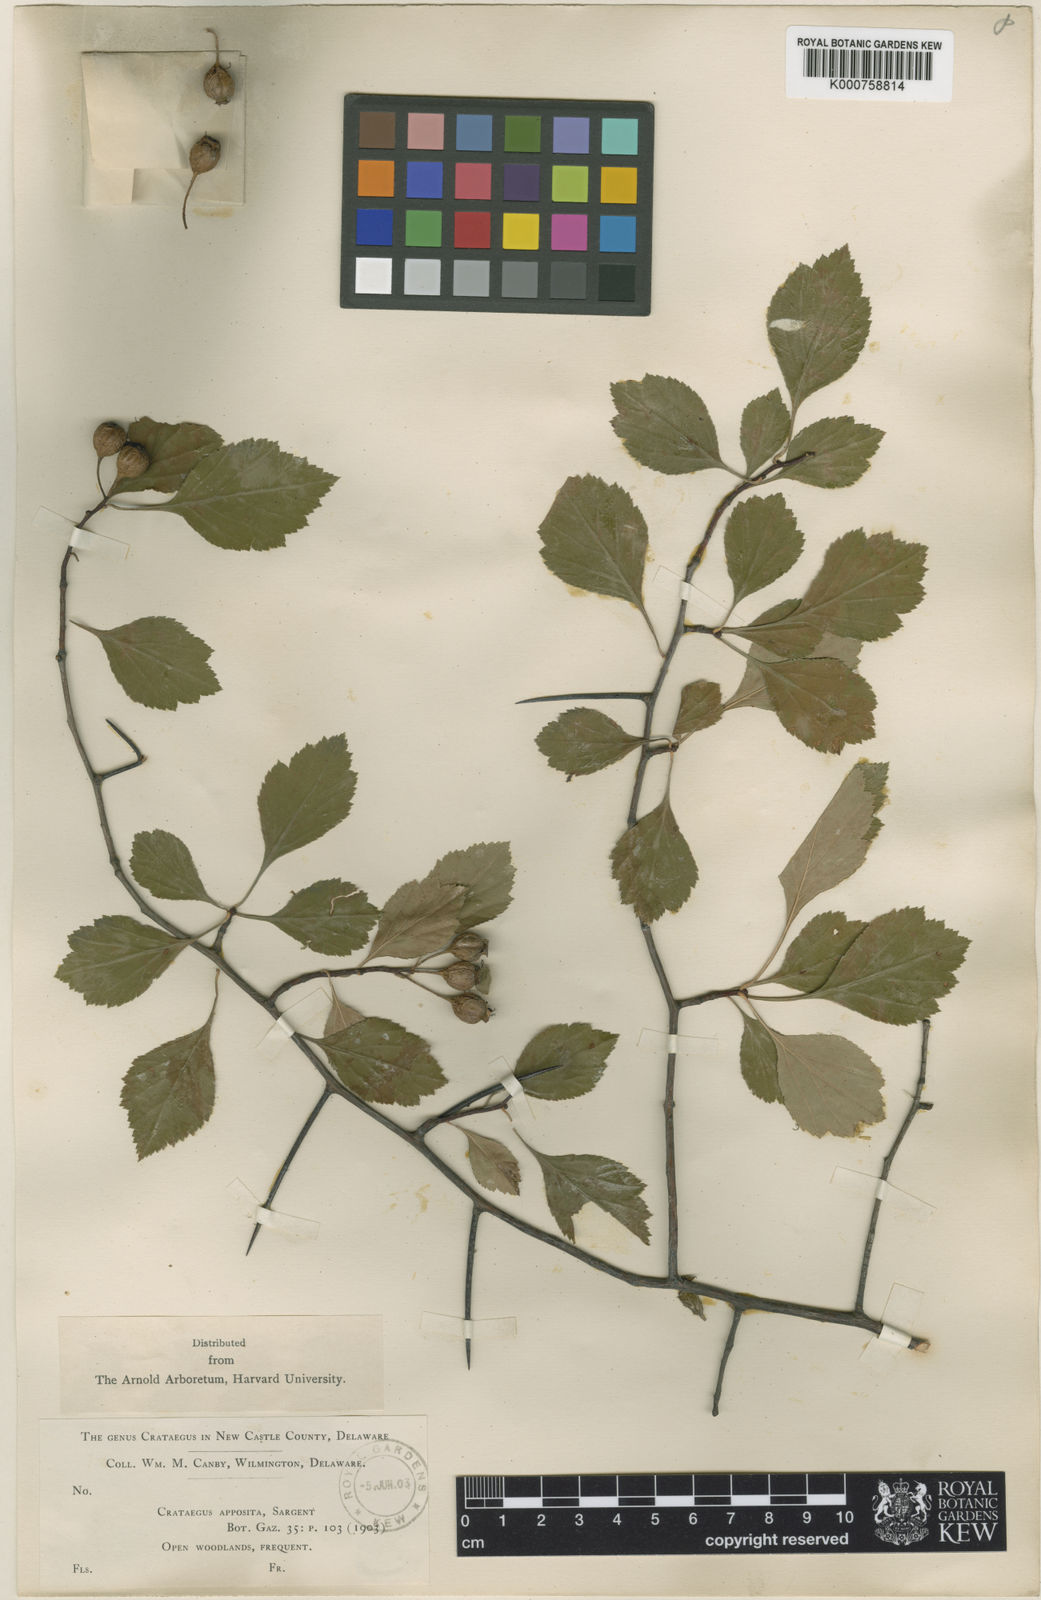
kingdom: Plantae
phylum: Tracheophyta
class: Magnoliopsida
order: Rosales
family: Rosaceae
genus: Crataegus
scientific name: Crataegus intricata
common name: Biltmore hawthorn
